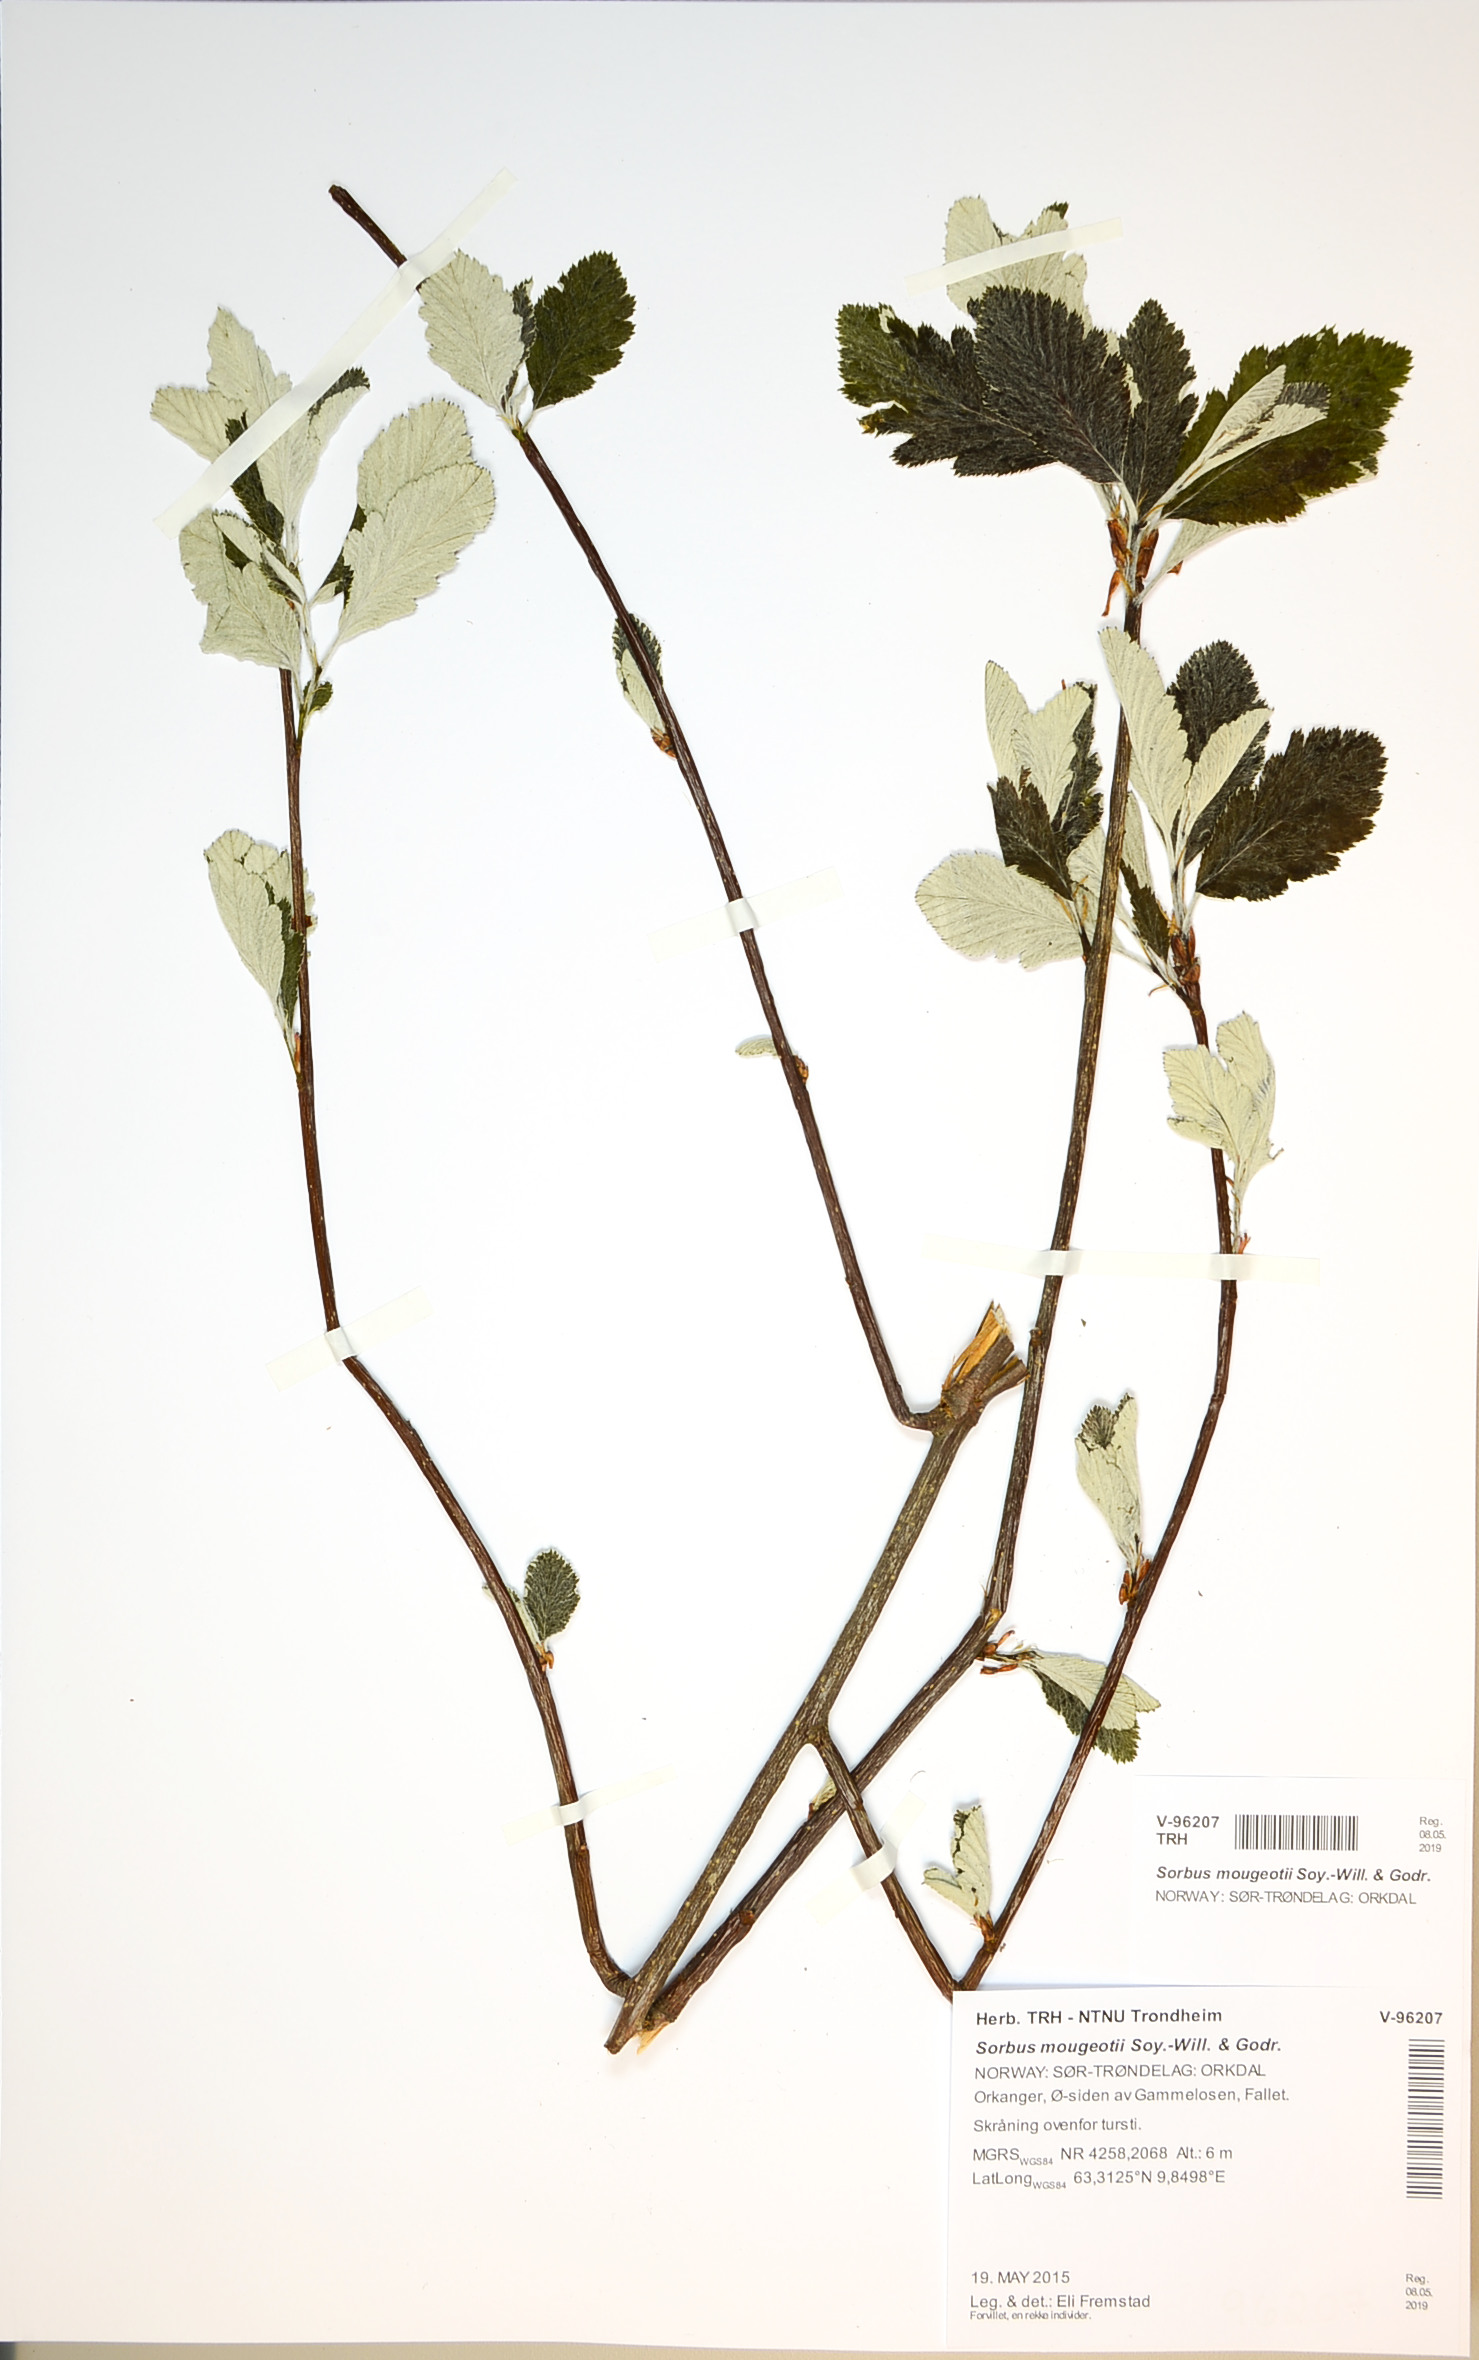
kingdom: Plantae
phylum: Tracheophyta
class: Magnoliopsida
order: Rosales
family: Rosaceae
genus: Hedlundia
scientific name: Hedlundia mougeotii
